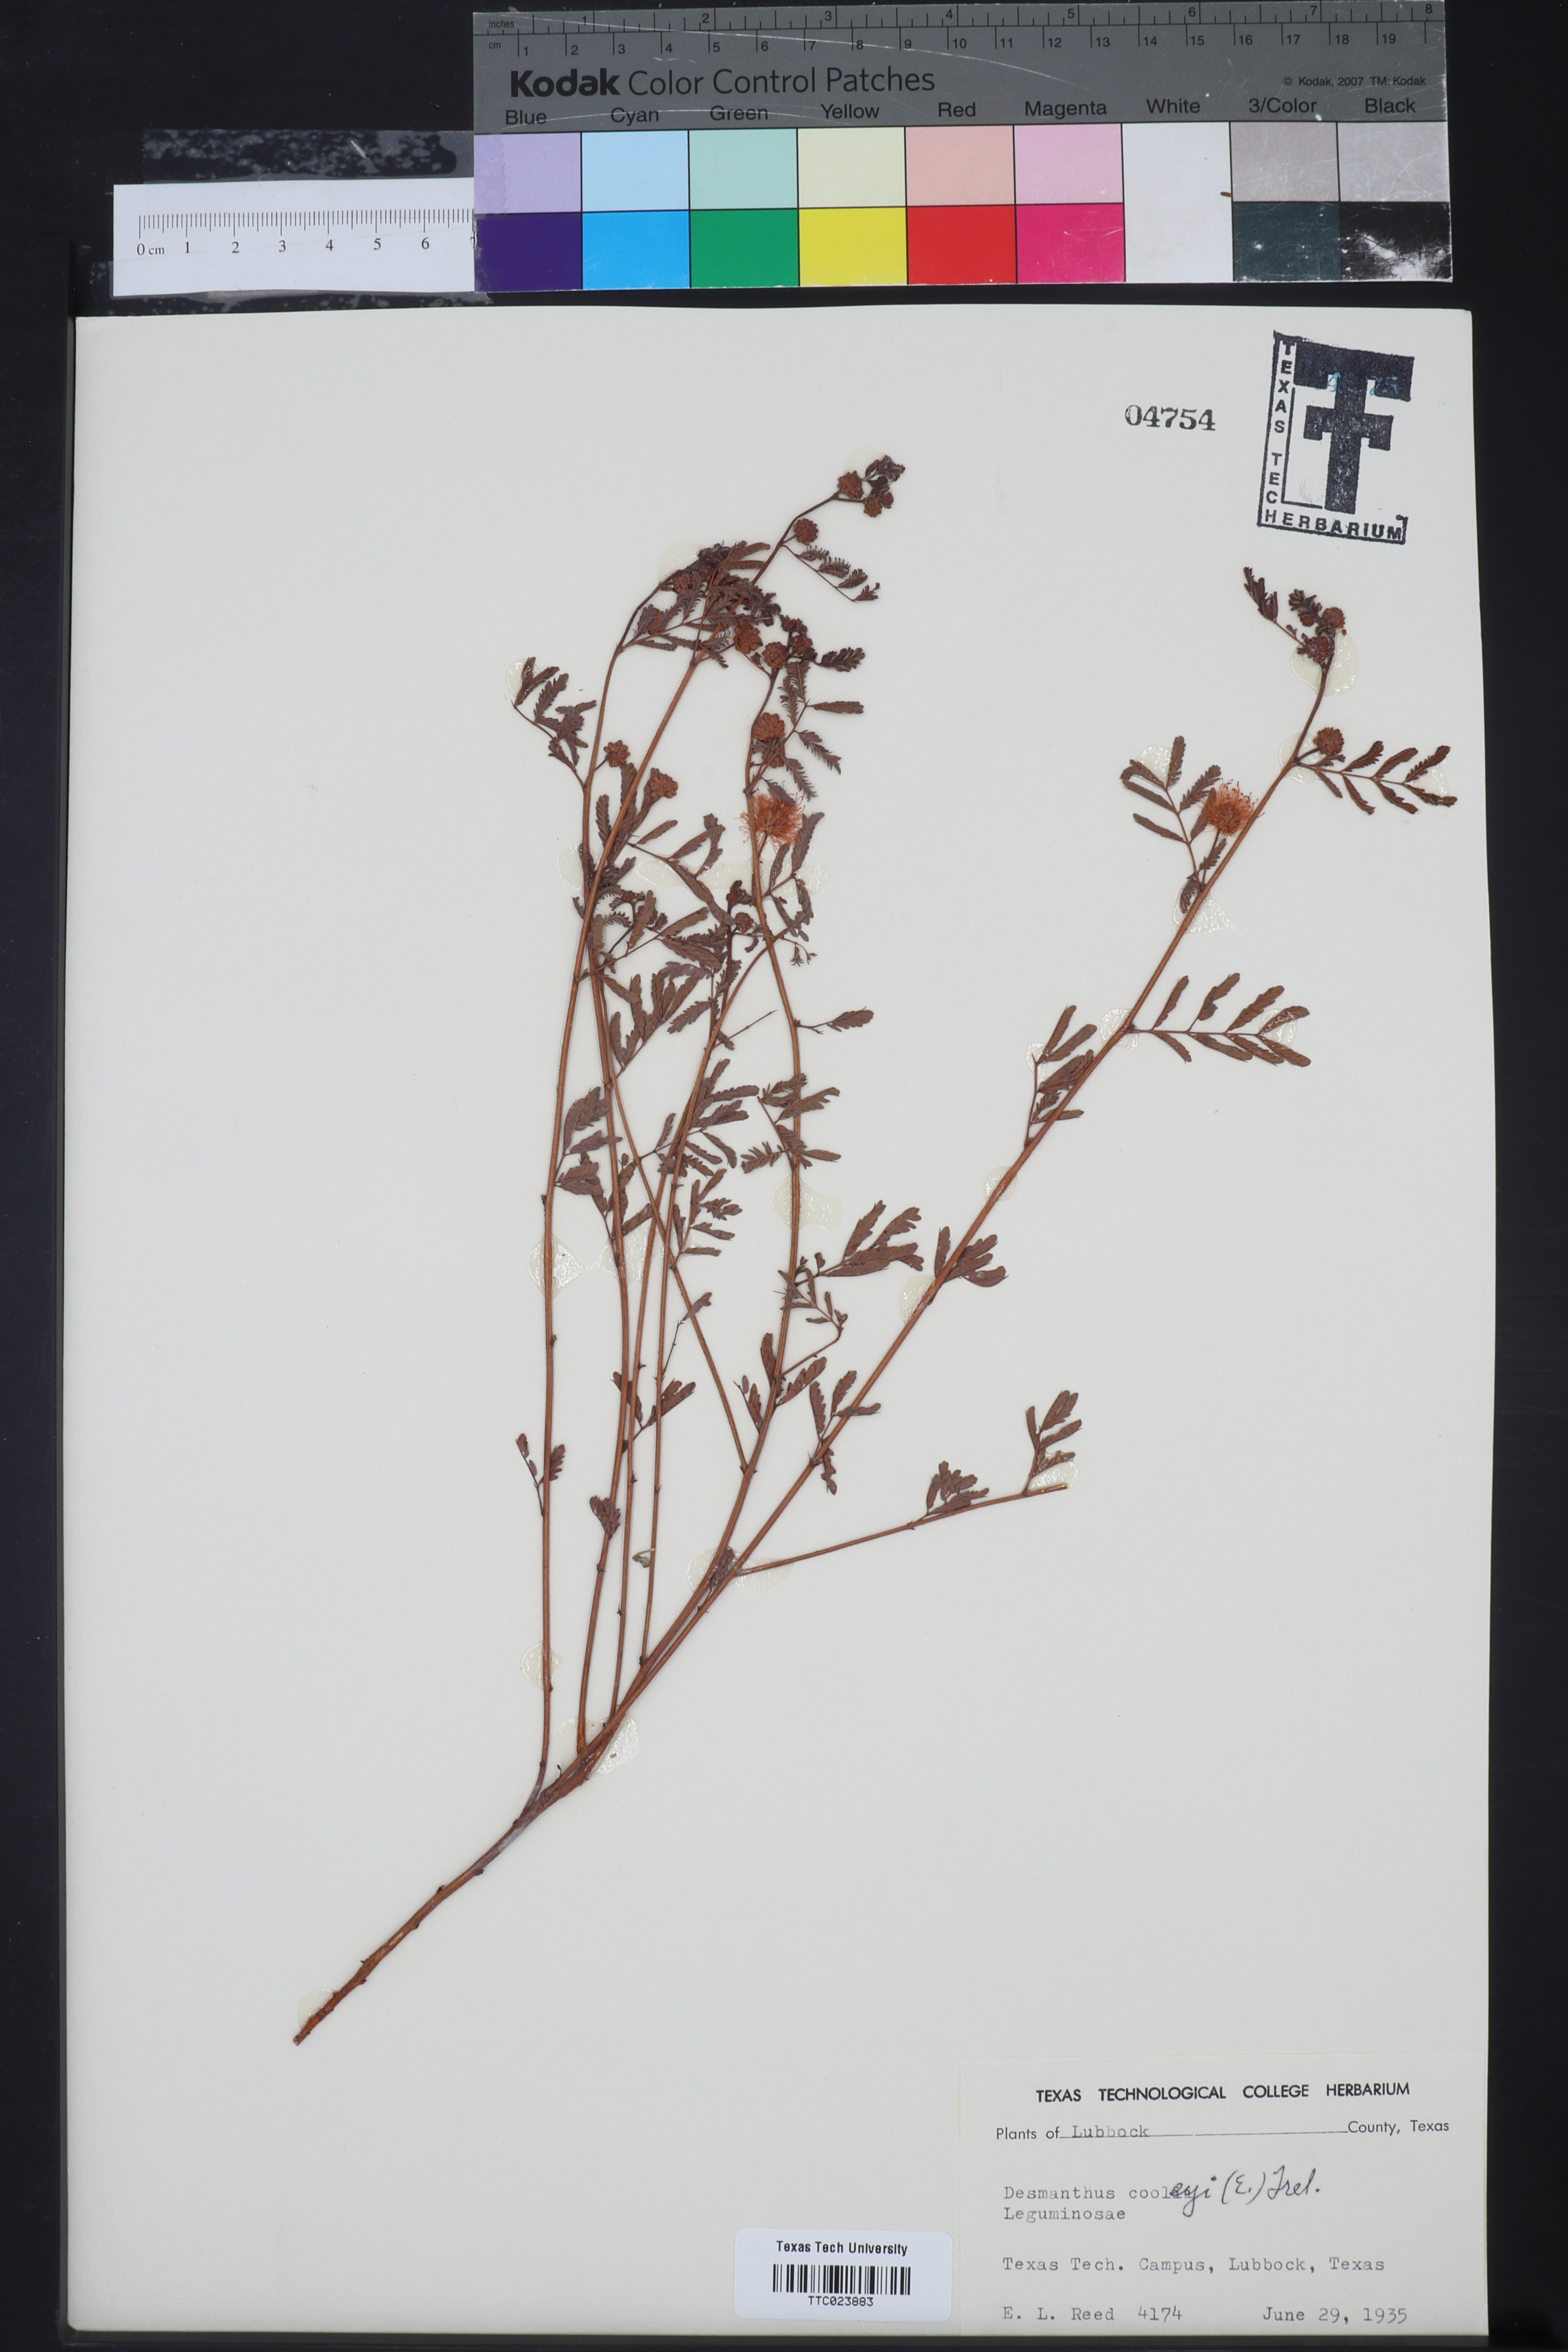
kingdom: Plantae
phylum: Tracheophyta
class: Magnoliopsida
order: Fabales
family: Fabaceae
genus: Desmanthus
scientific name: Desmanthus cooleyi
